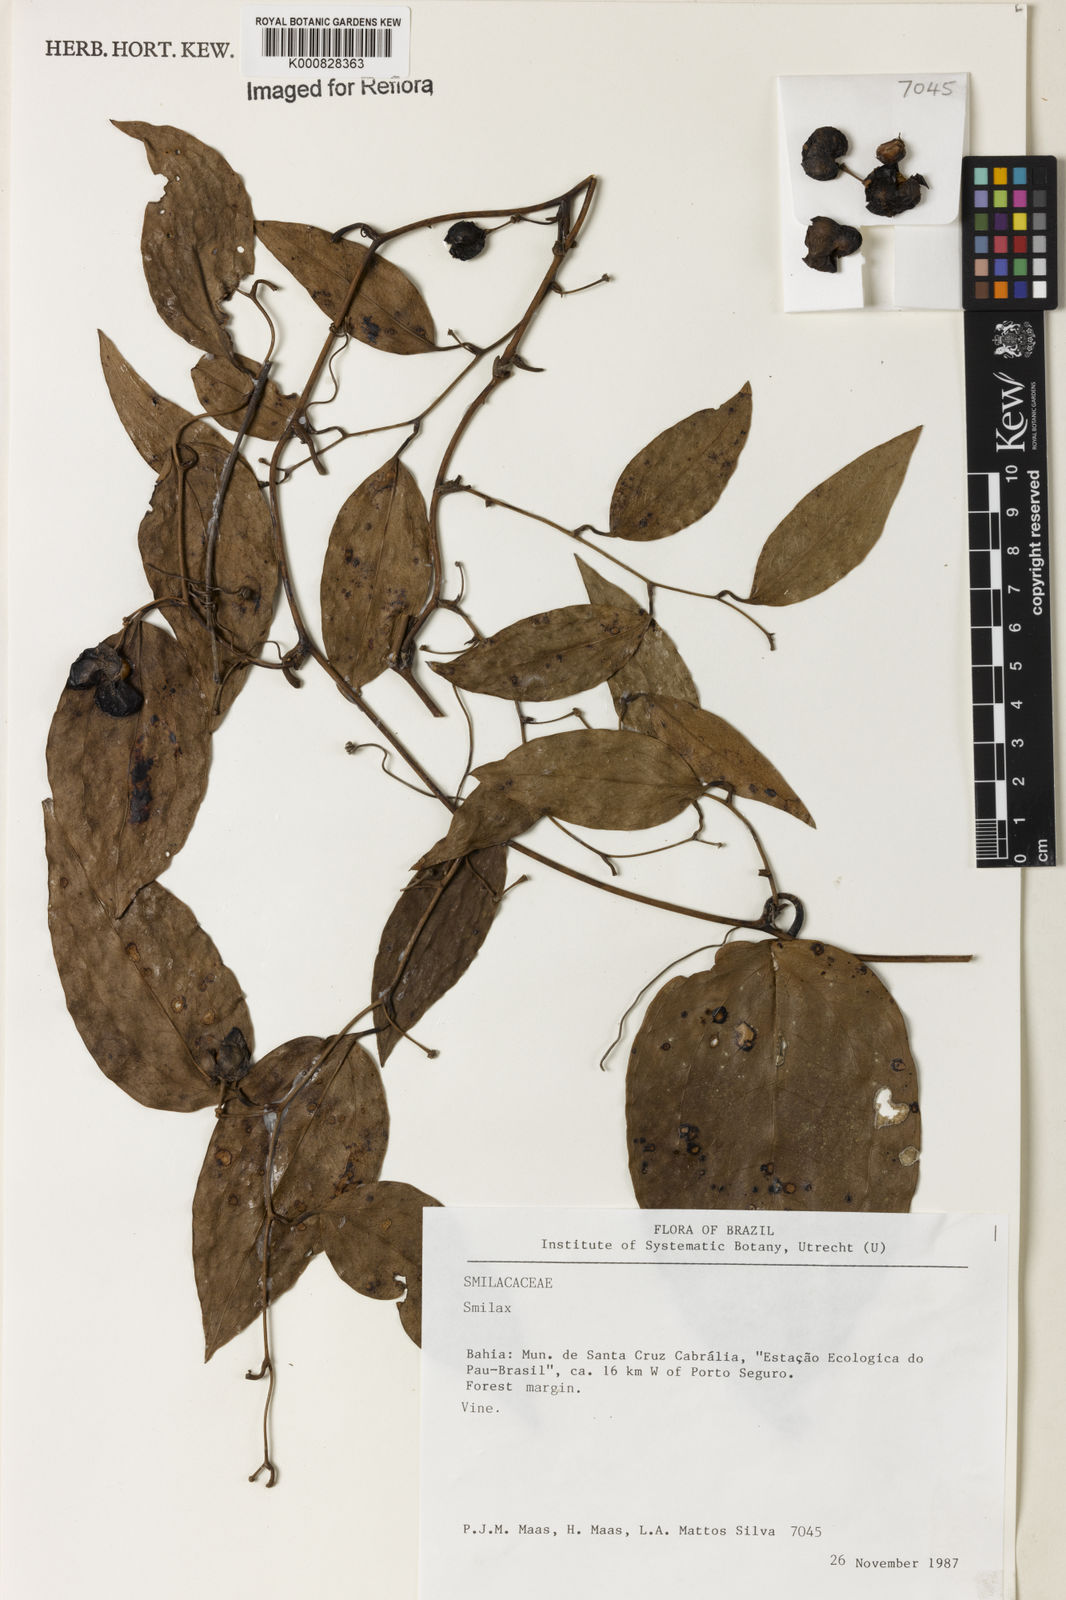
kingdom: Plantae
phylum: Tracheophyta
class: Liliopsida
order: Liliales
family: Smilacaceae
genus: Smilax
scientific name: Smilax
